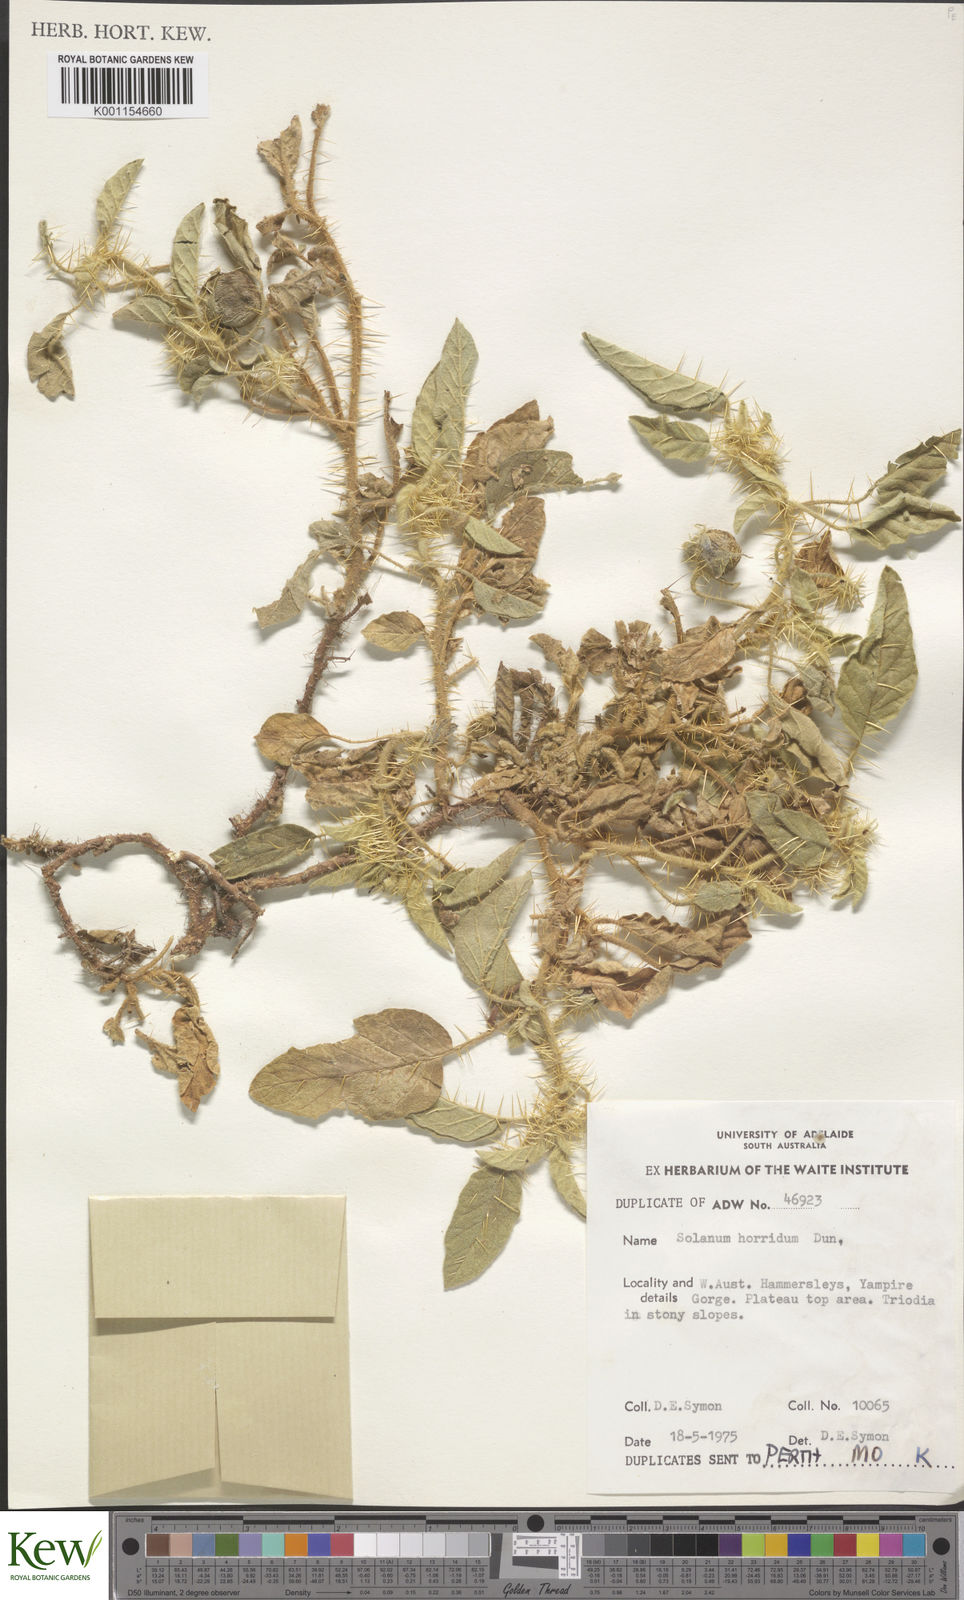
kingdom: Plantae
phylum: Tracheophyta
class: Magnoliopsida
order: Solanales
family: Solanaceae
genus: Solanum
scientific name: Solanum horridum
